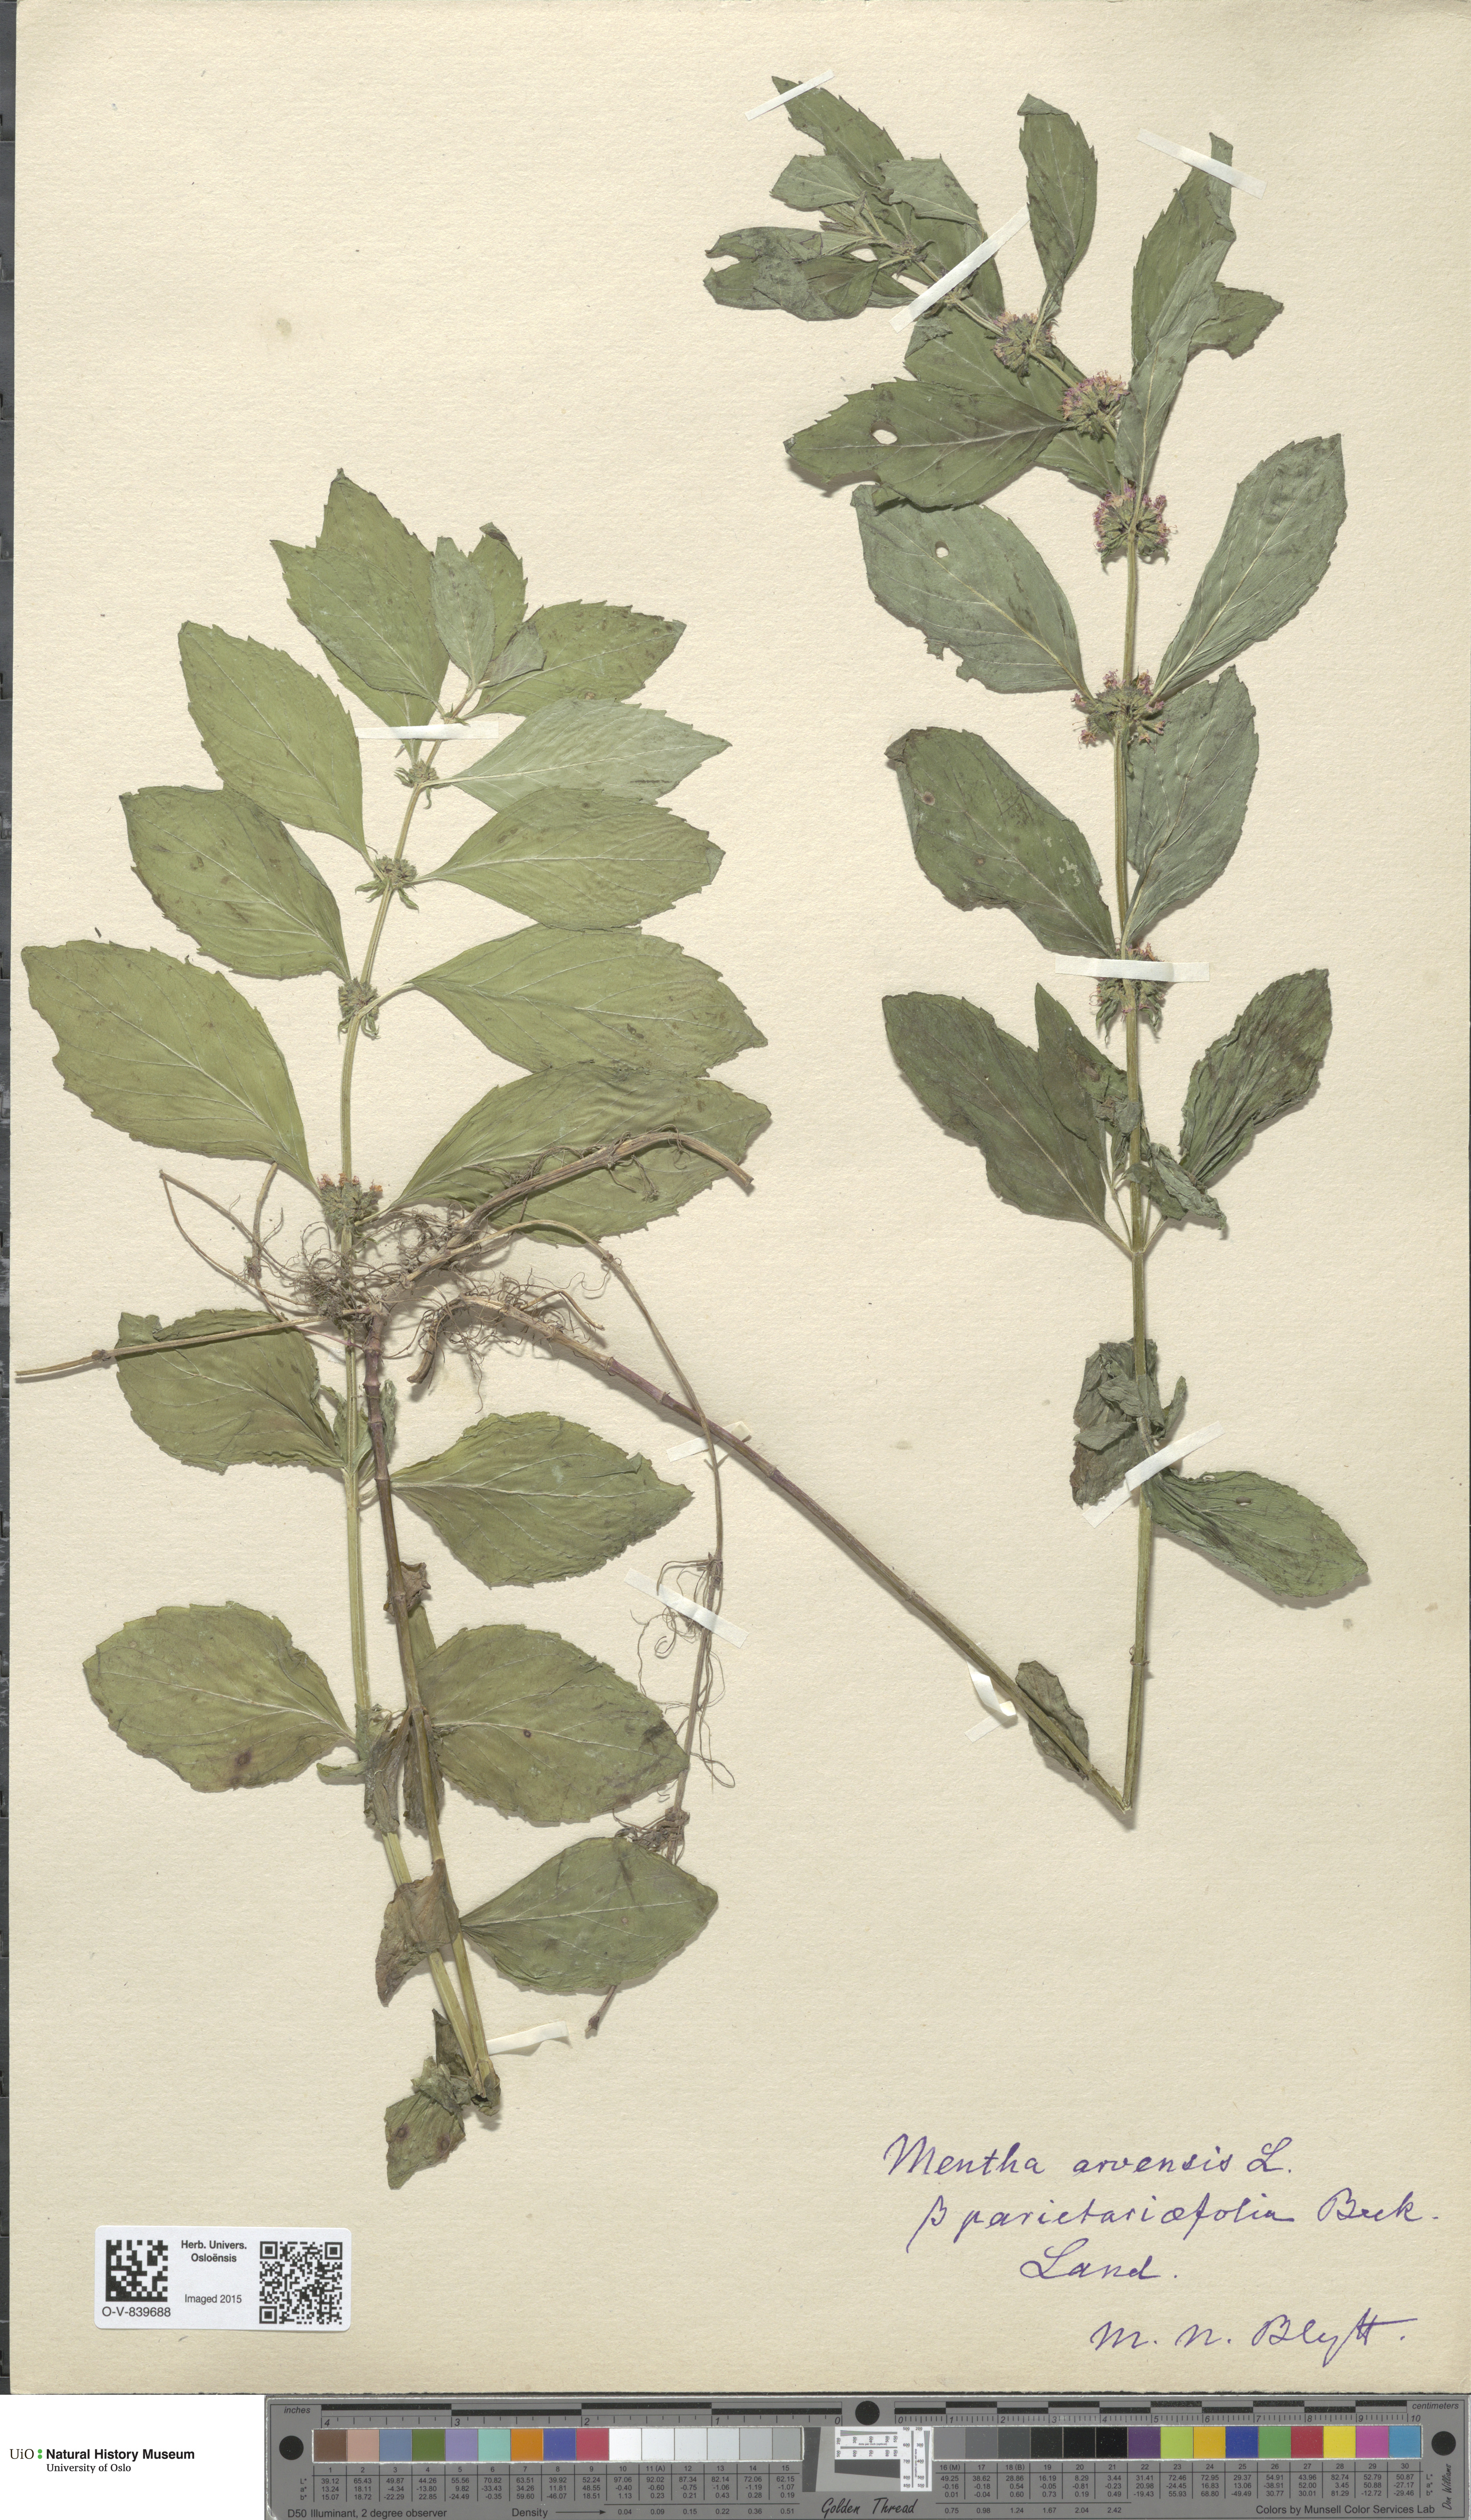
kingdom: Plantae
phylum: Tracheophyta
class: Magnoliopsida
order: Lamiales
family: Lamiaceae
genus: Mentha
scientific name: Mentha arvensis
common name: Corn mint
